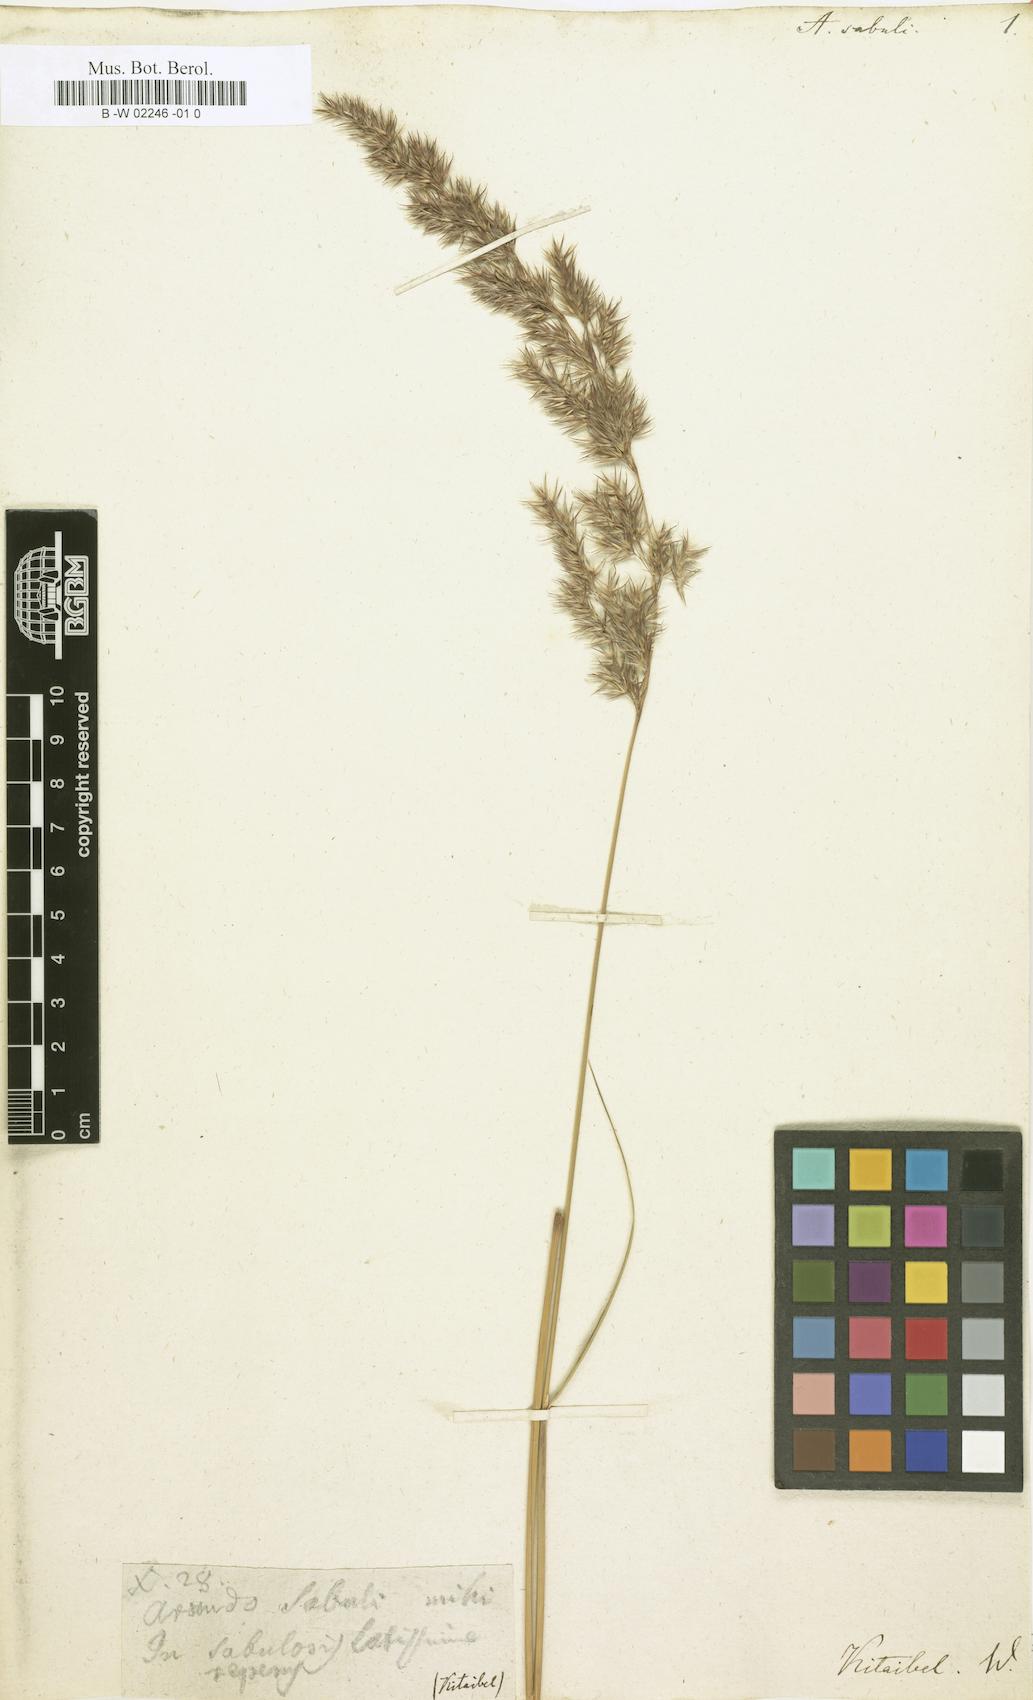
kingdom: Plantae
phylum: Tracheophyta
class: Liliopsida
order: Poales
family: Poaceae
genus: Calamagrostis
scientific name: Calamagrostis pseudophragmites
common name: Coastal small-reed
